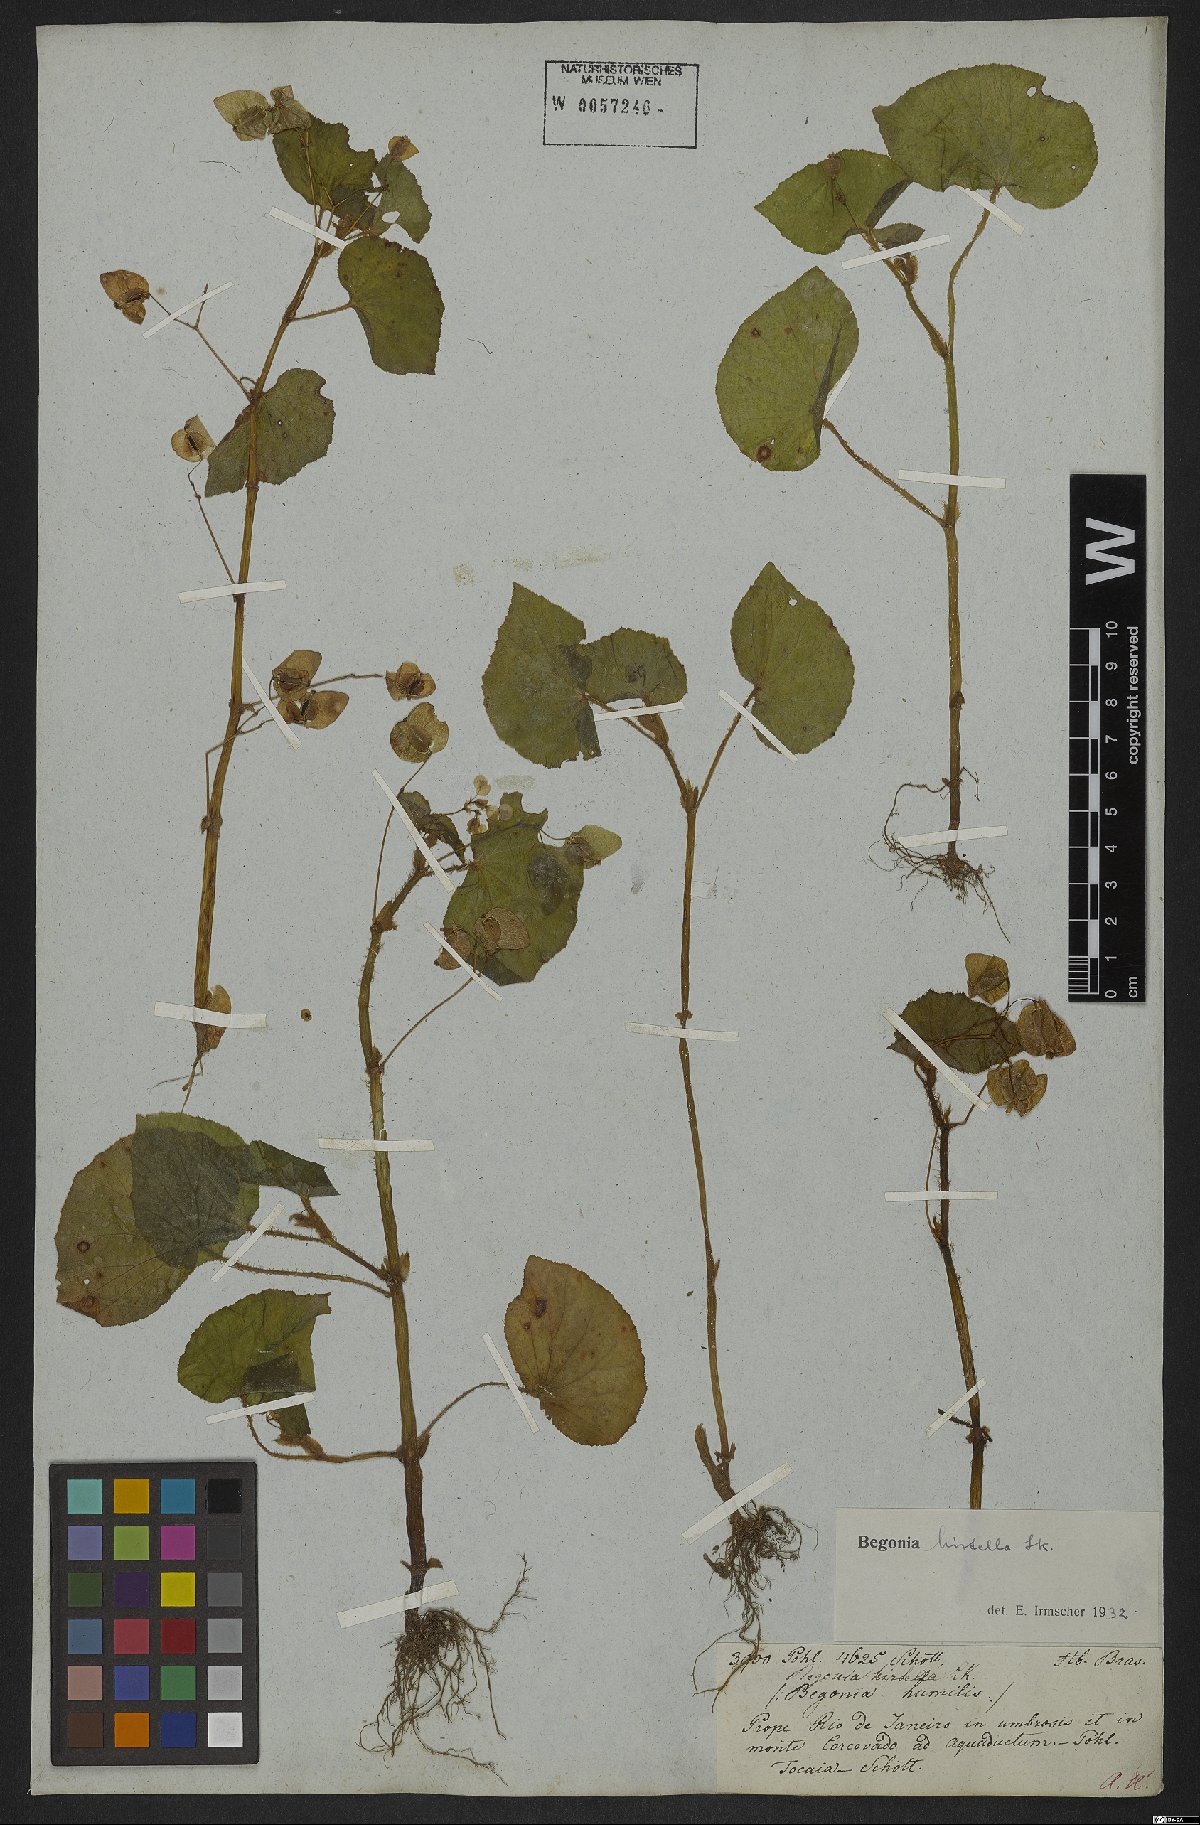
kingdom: Plantae
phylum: Tracheophyta
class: Magnoliopsida
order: Cucurbitales
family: Begoniaceae
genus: Begonia
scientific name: Begonia hirtella
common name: Brazilian begonia
